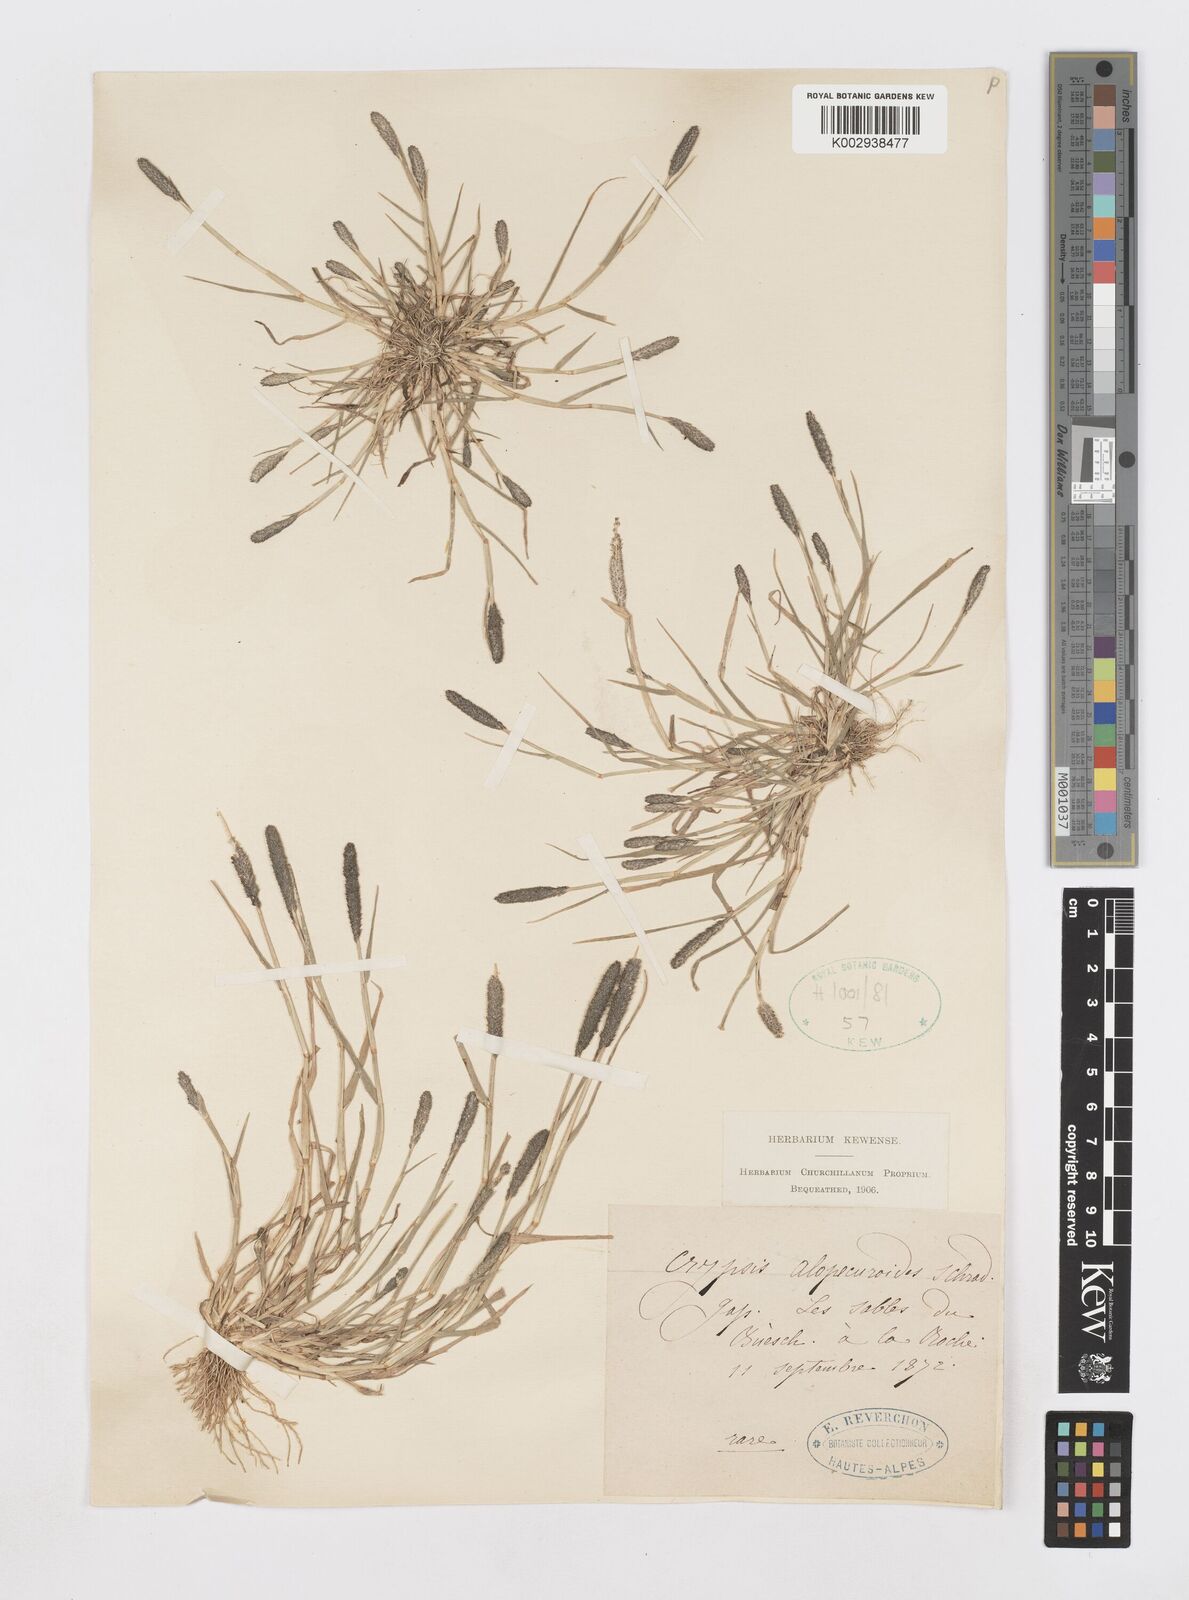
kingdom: Plantae
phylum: Tracheophyta
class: Liliopsida
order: Poales
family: Poaceae
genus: Sporobolus
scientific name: Sporobolus alopecuroides
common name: Foxtail pricklegrass
